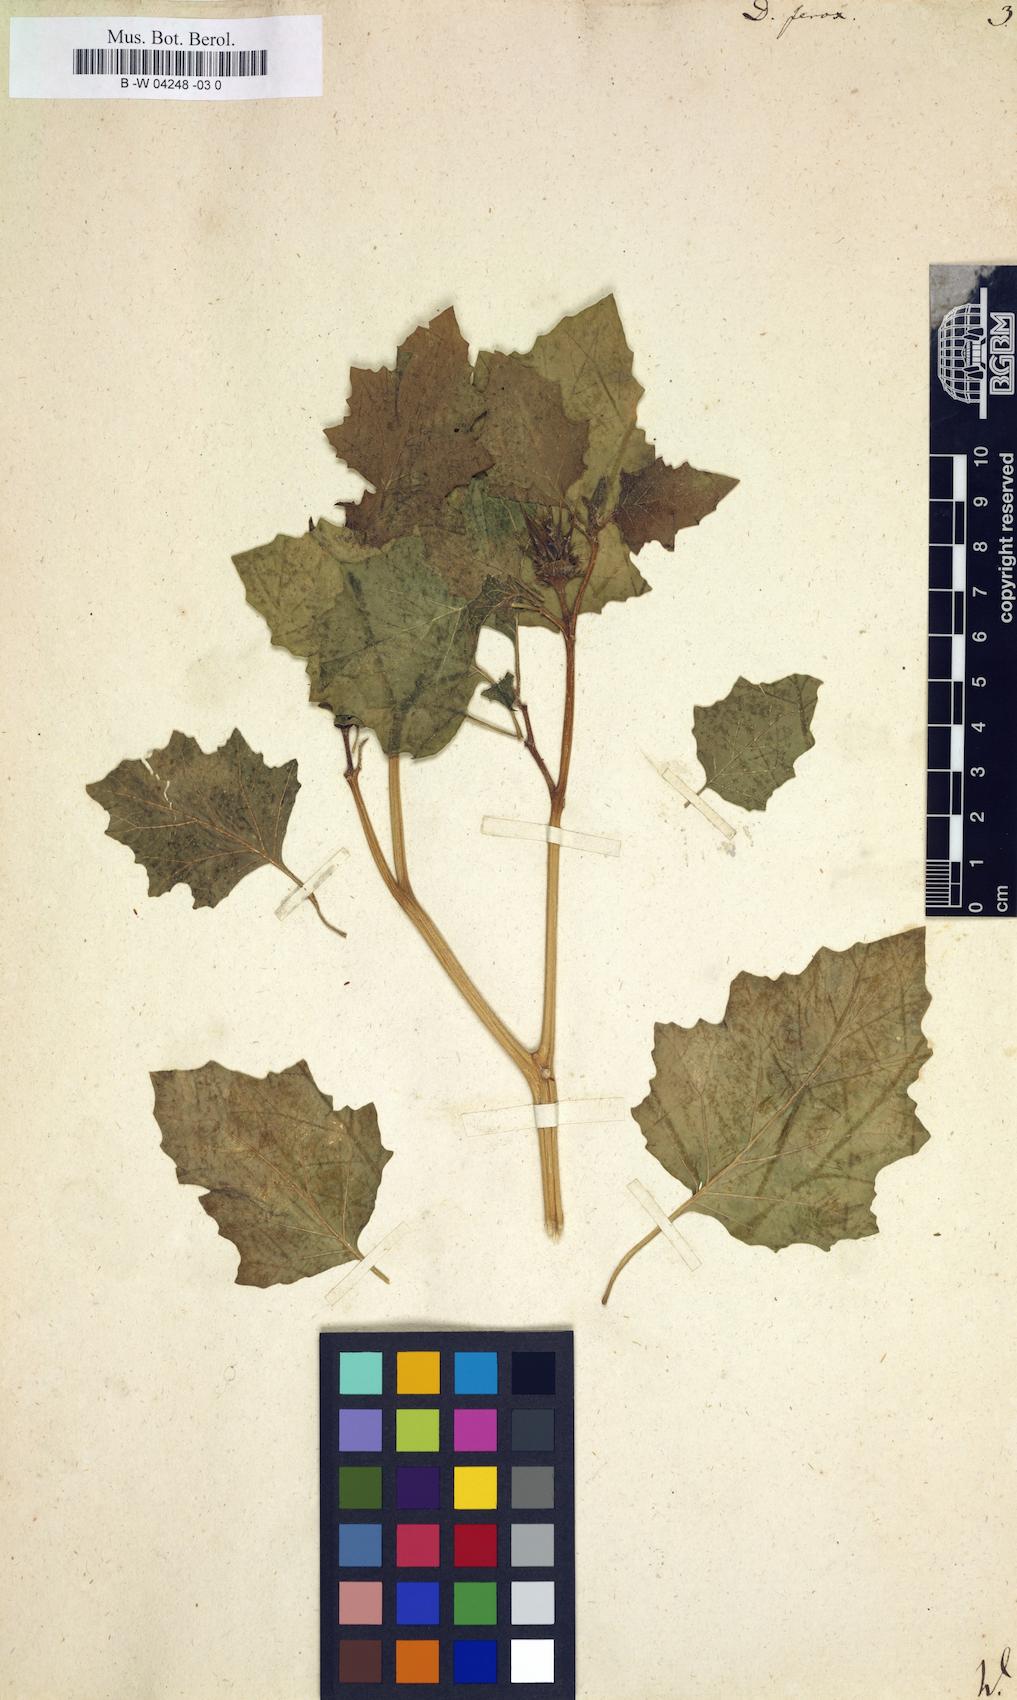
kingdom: Plantae
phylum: Tracheophyta
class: Magnoliopsida
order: Solanales
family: Solanaceae
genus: Datura
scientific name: Datura ferox
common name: Angel's-trumpets
